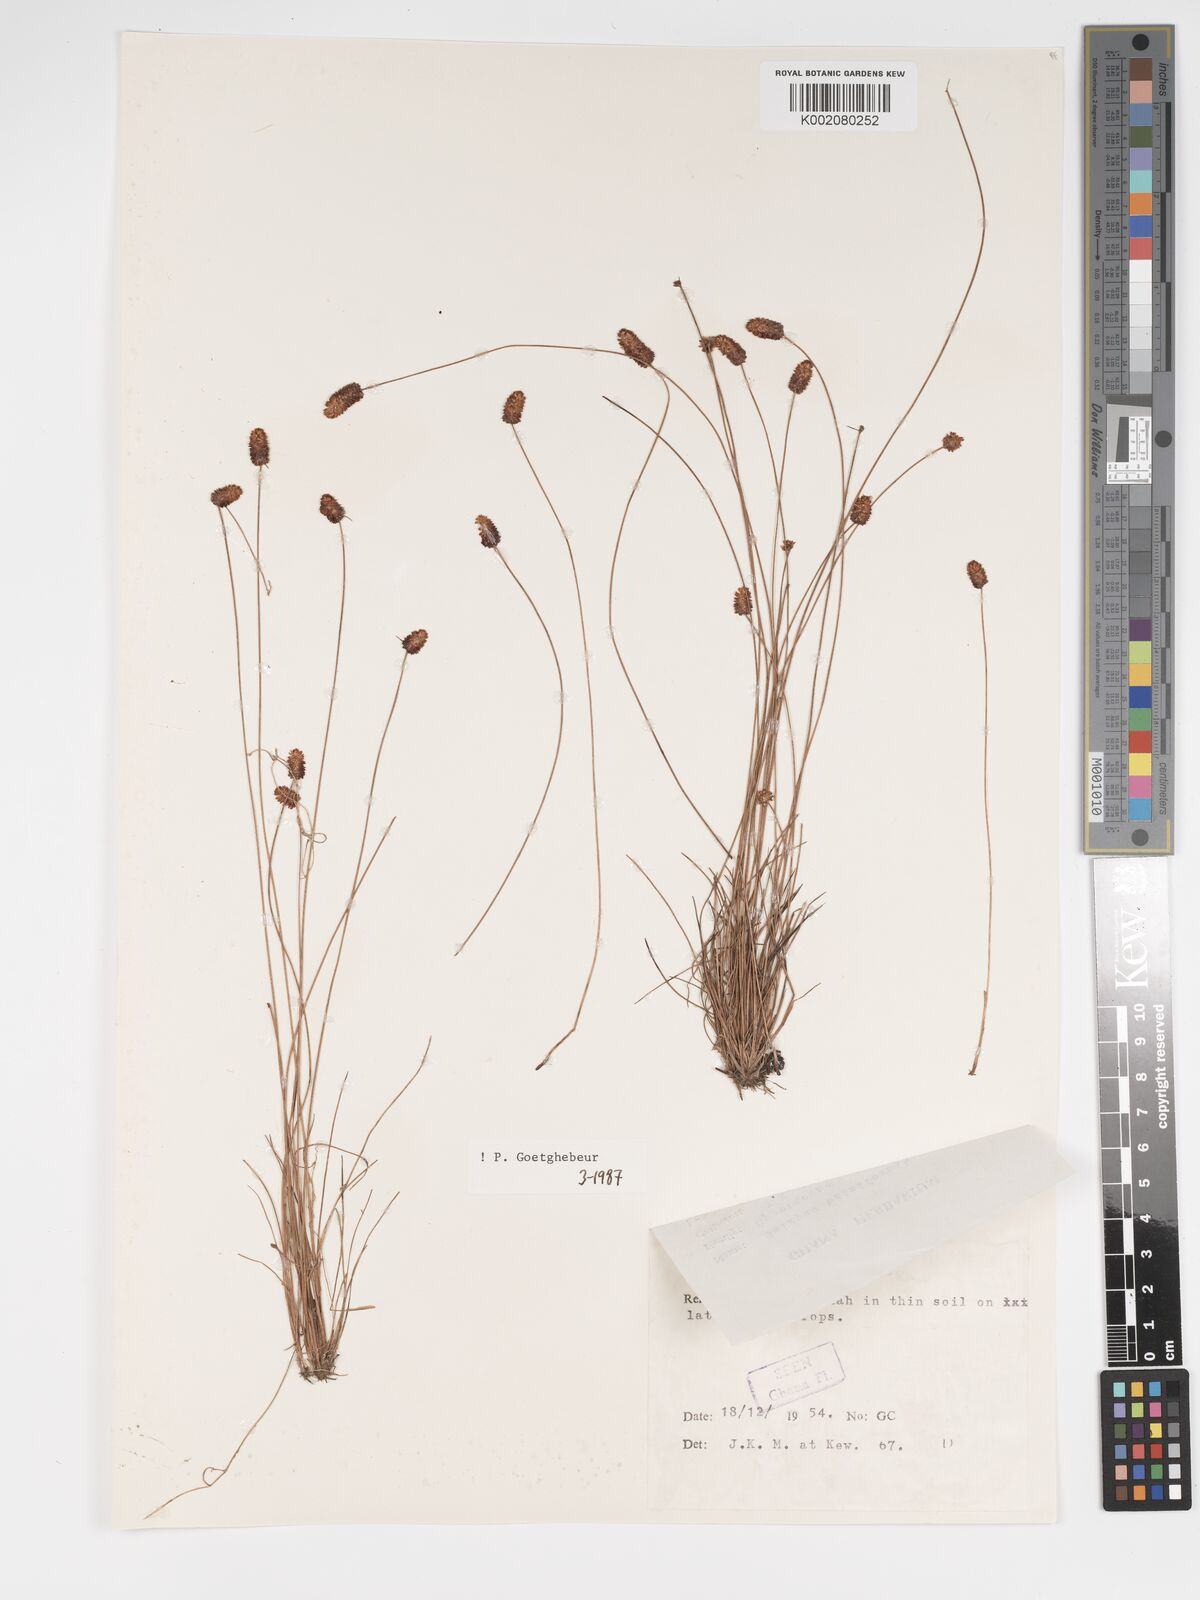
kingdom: Plantae
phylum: Tracheophyta
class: Liliopsida
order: Poales
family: Cyperaceae
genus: Bulbostylis
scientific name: Bulbostylis briziformis
